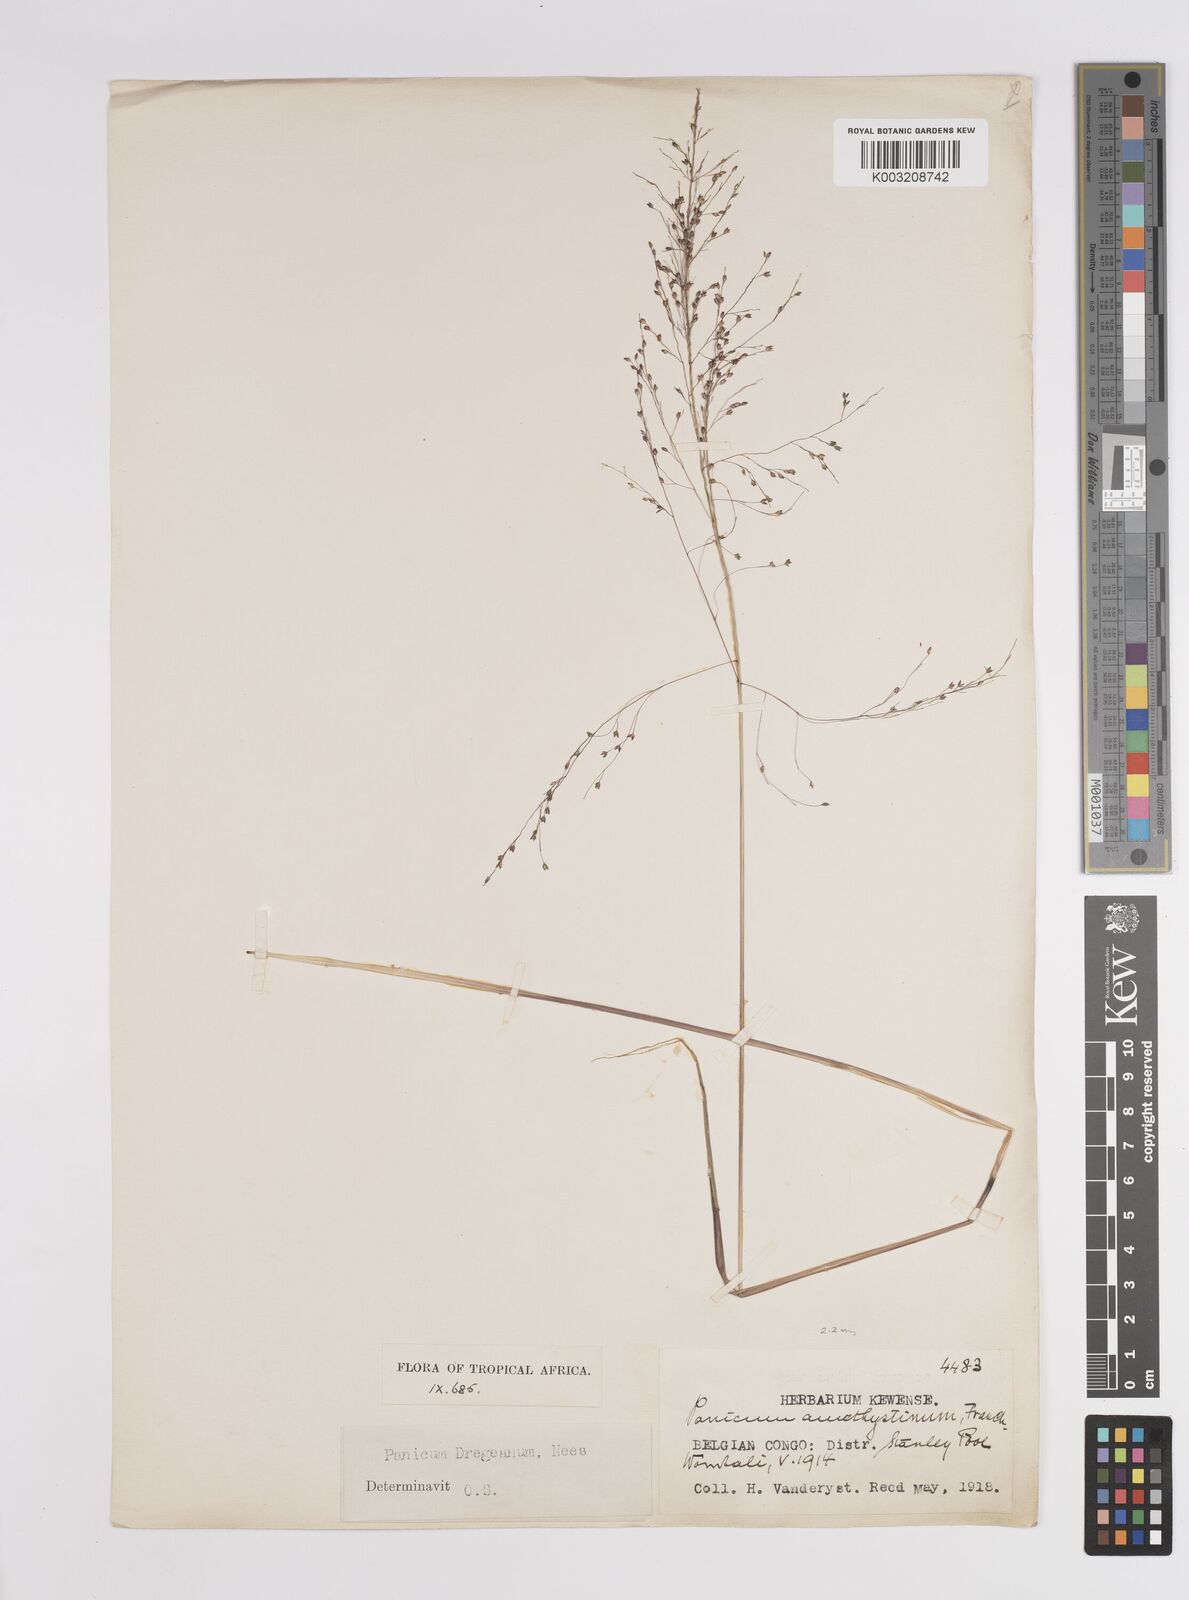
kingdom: Plantae
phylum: Tracheophyta
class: Liliopsida
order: Poales
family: Poaceae
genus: Panicum
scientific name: Panicum dregeanum
